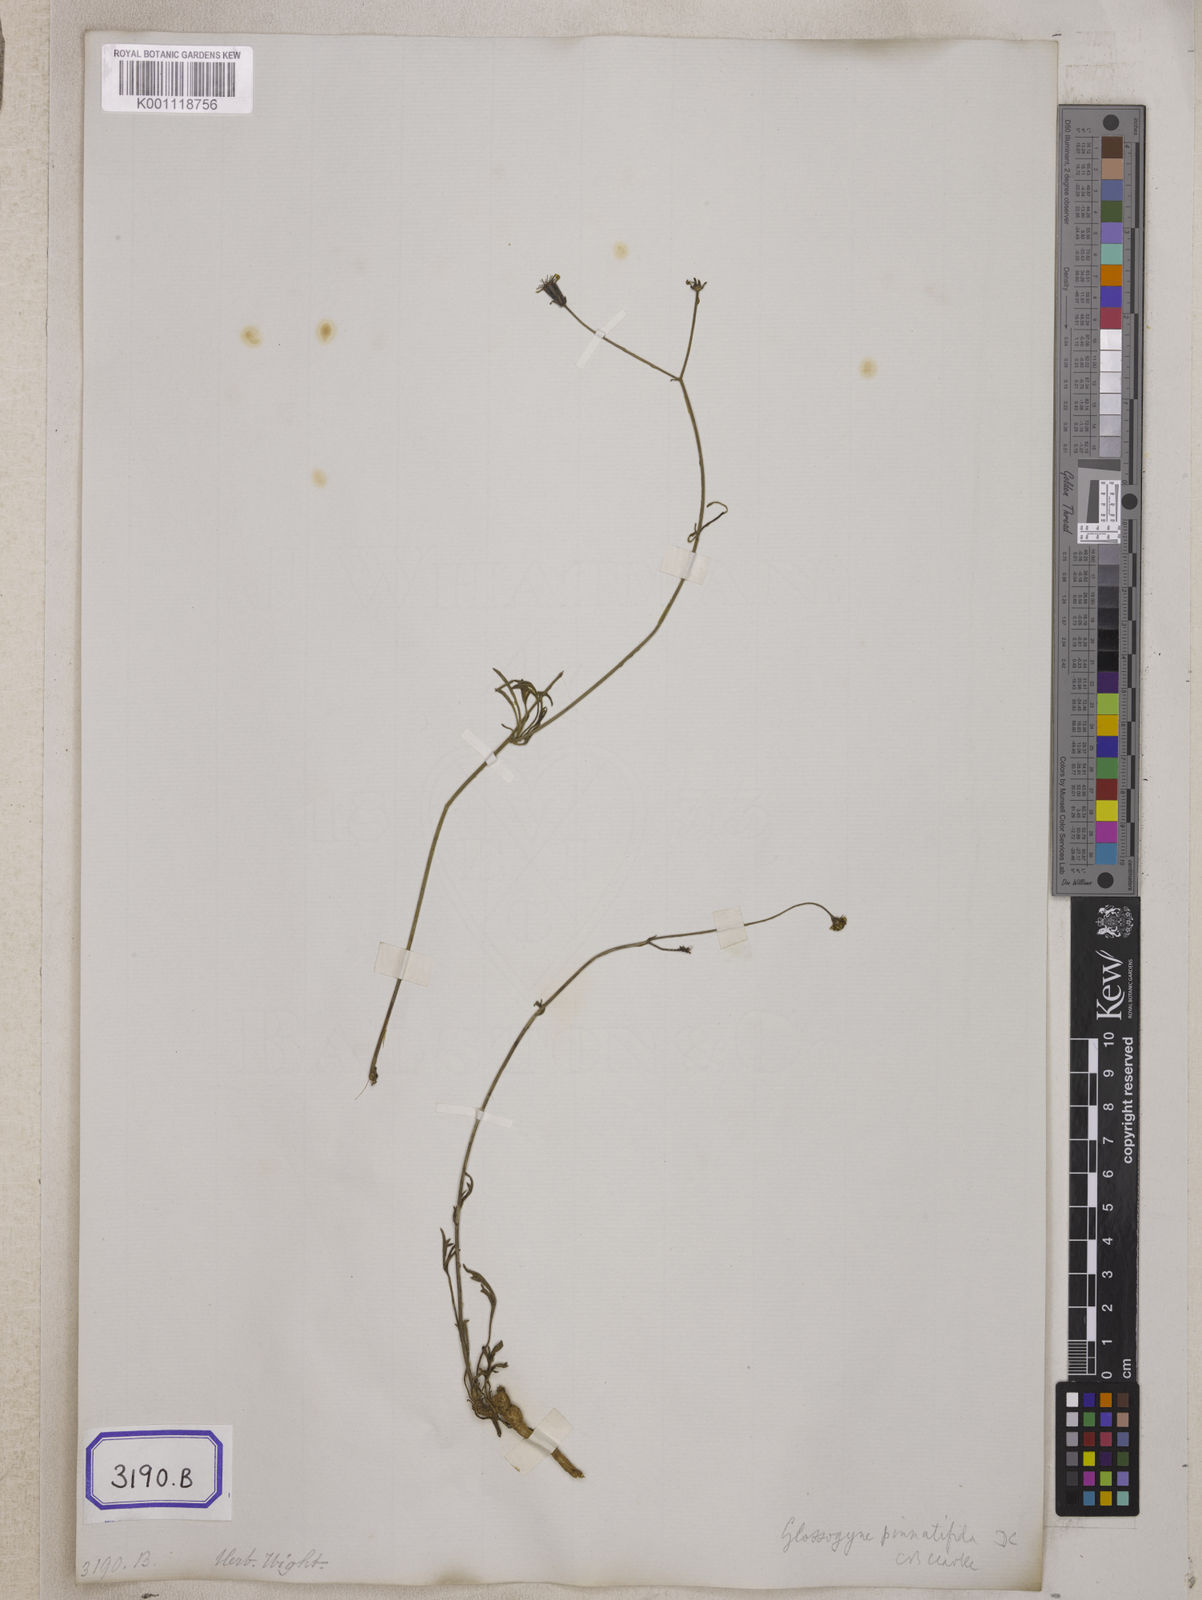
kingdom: Plantae
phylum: Tracheophyta
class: Magnoliopsida
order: Asterales
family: Asteraceae
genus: Bidens
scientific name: Bidens
